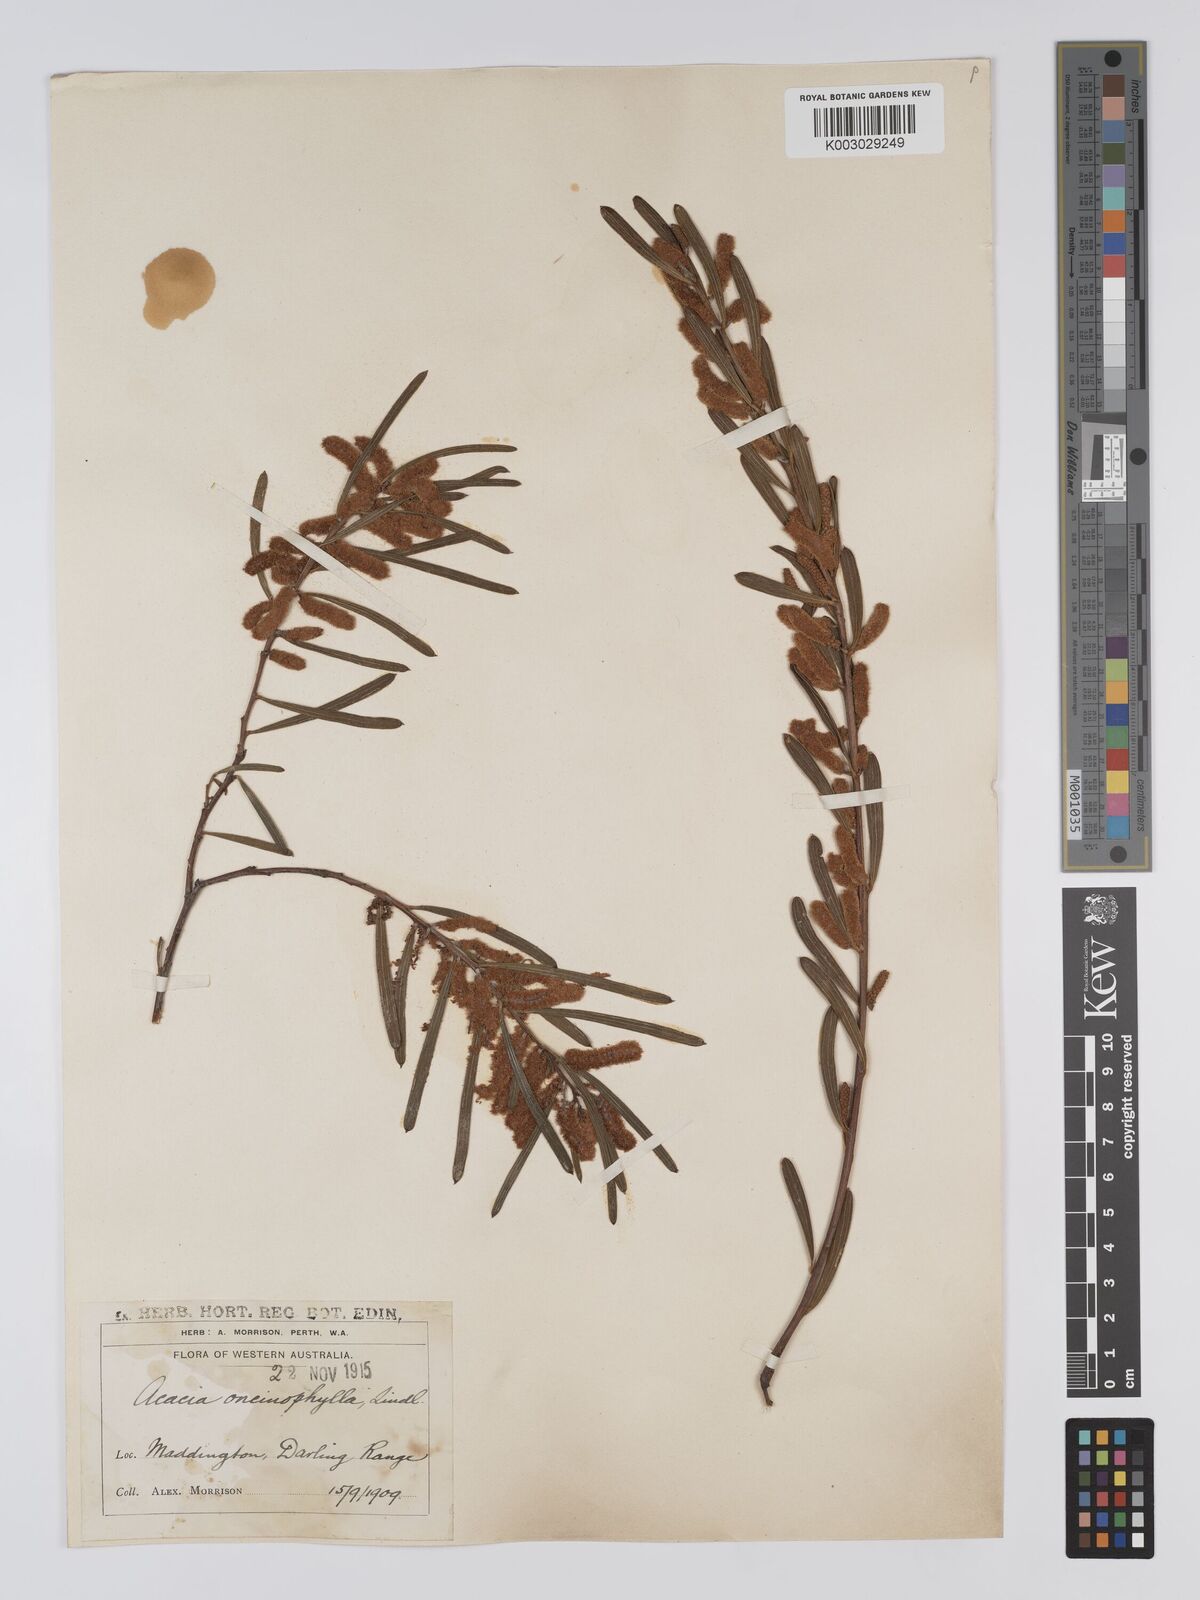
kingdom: Plantae
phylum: Tracheophyta
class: Magnoliopsida
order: Fabales
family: Fabaceae
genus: Acacia
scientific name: Acacia oncinophylla
